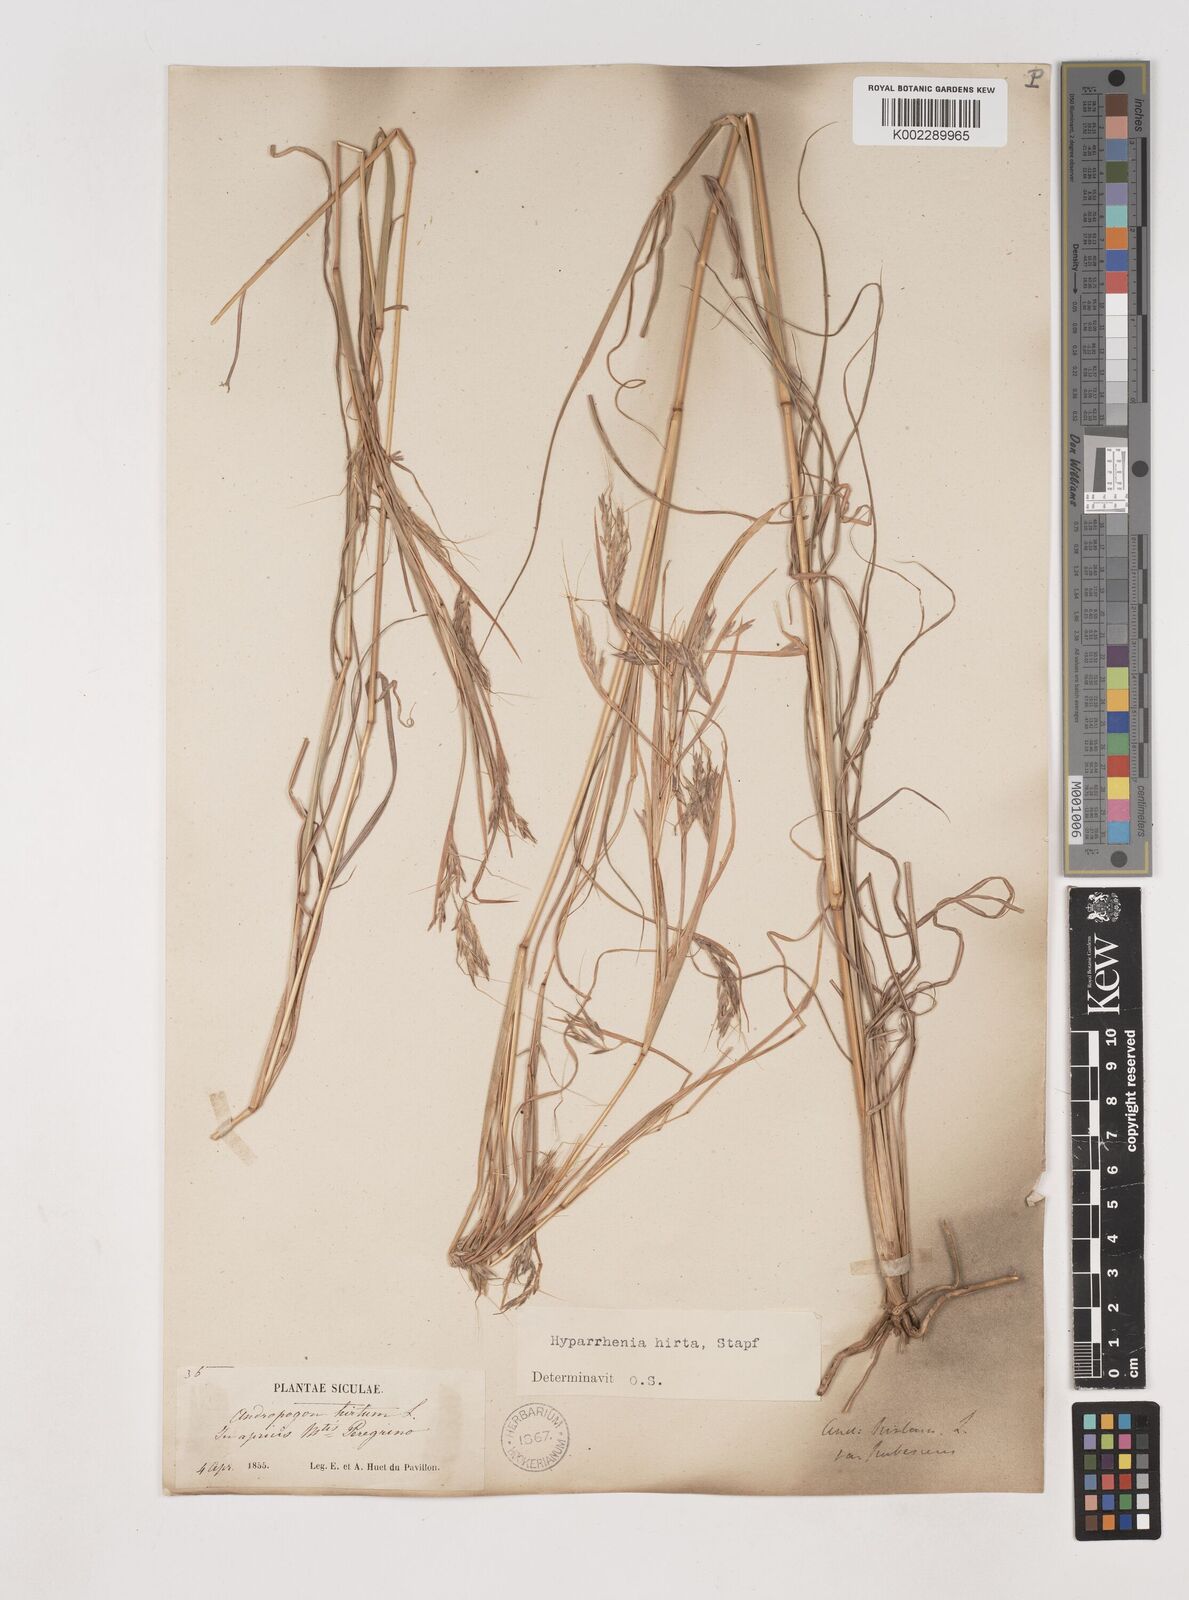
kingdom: Plantae
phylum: Tracheophyta
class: Liliopsida
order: Poales
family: Poaceae
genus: Hyparrhenia
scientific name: Hyparrhenia hirta
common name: Thatching grass
